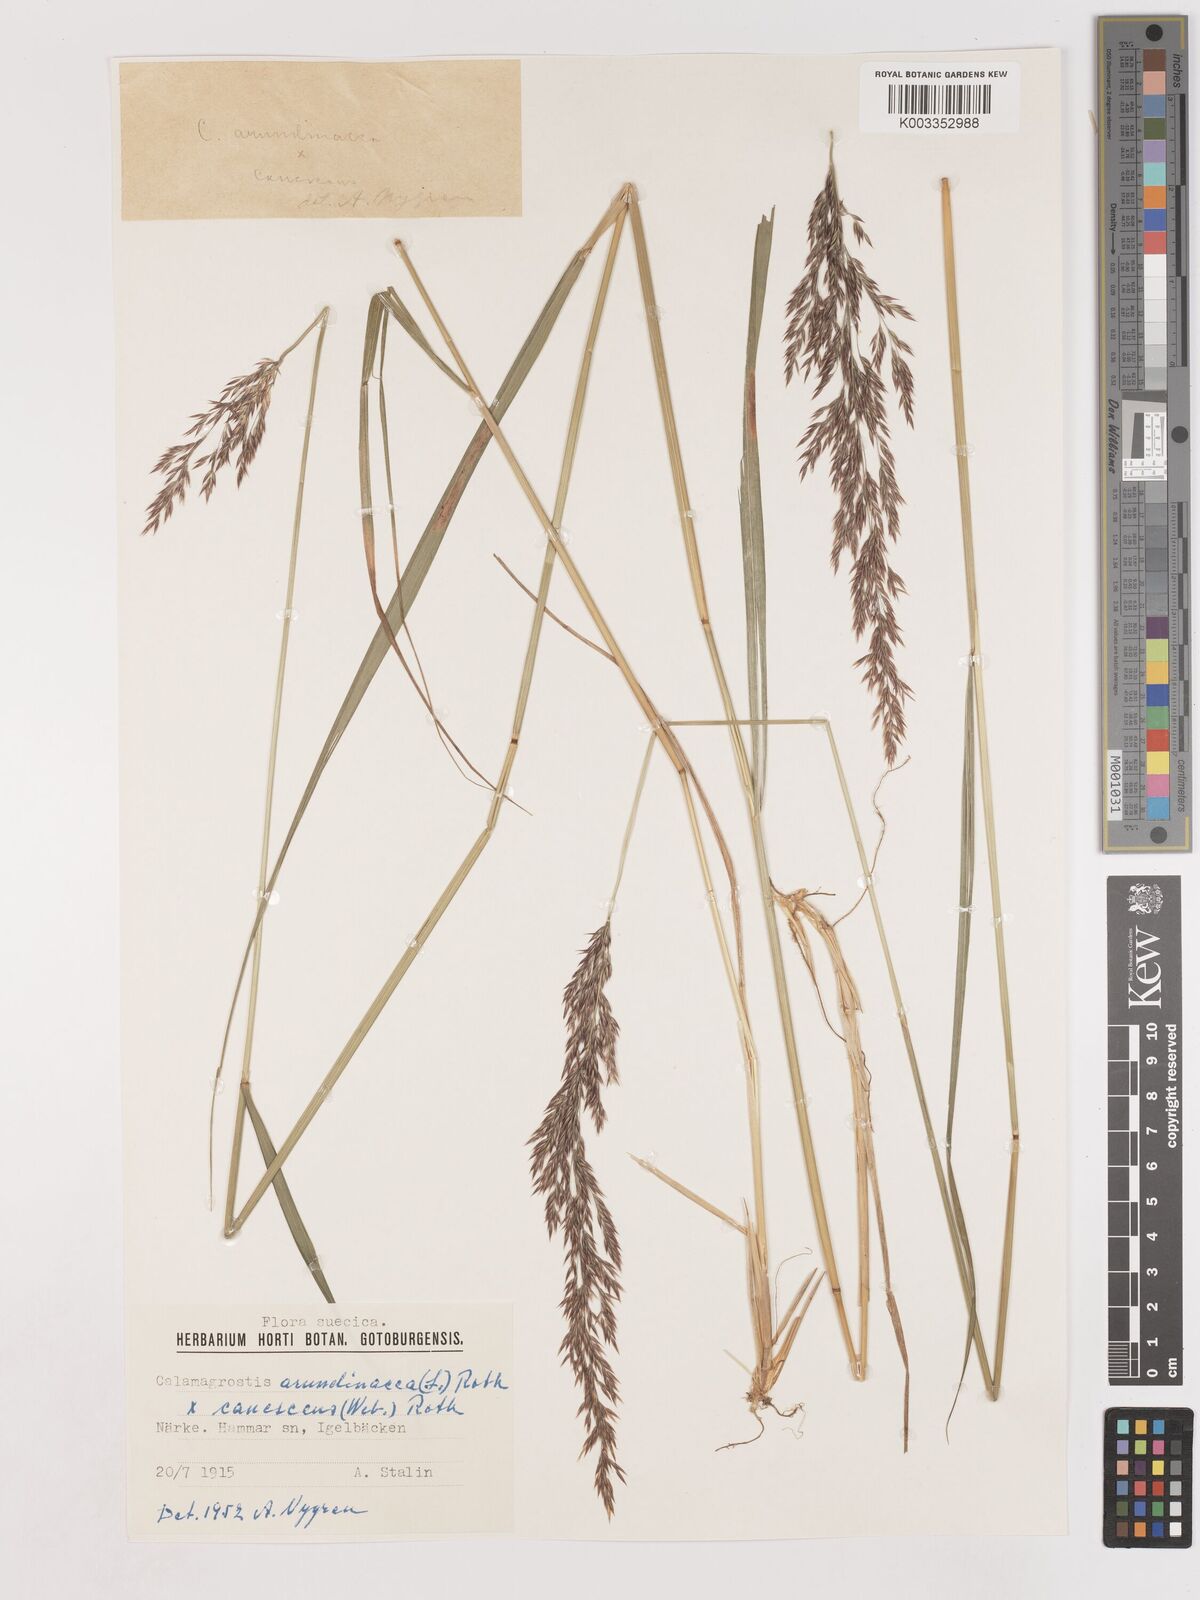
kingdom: Plantae
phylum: Tracheophyta
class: Liliopsida
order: Poales
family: Poaceae
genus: Calamagrostis
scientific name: Calamagrostis canescens
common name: Purple small-reed
